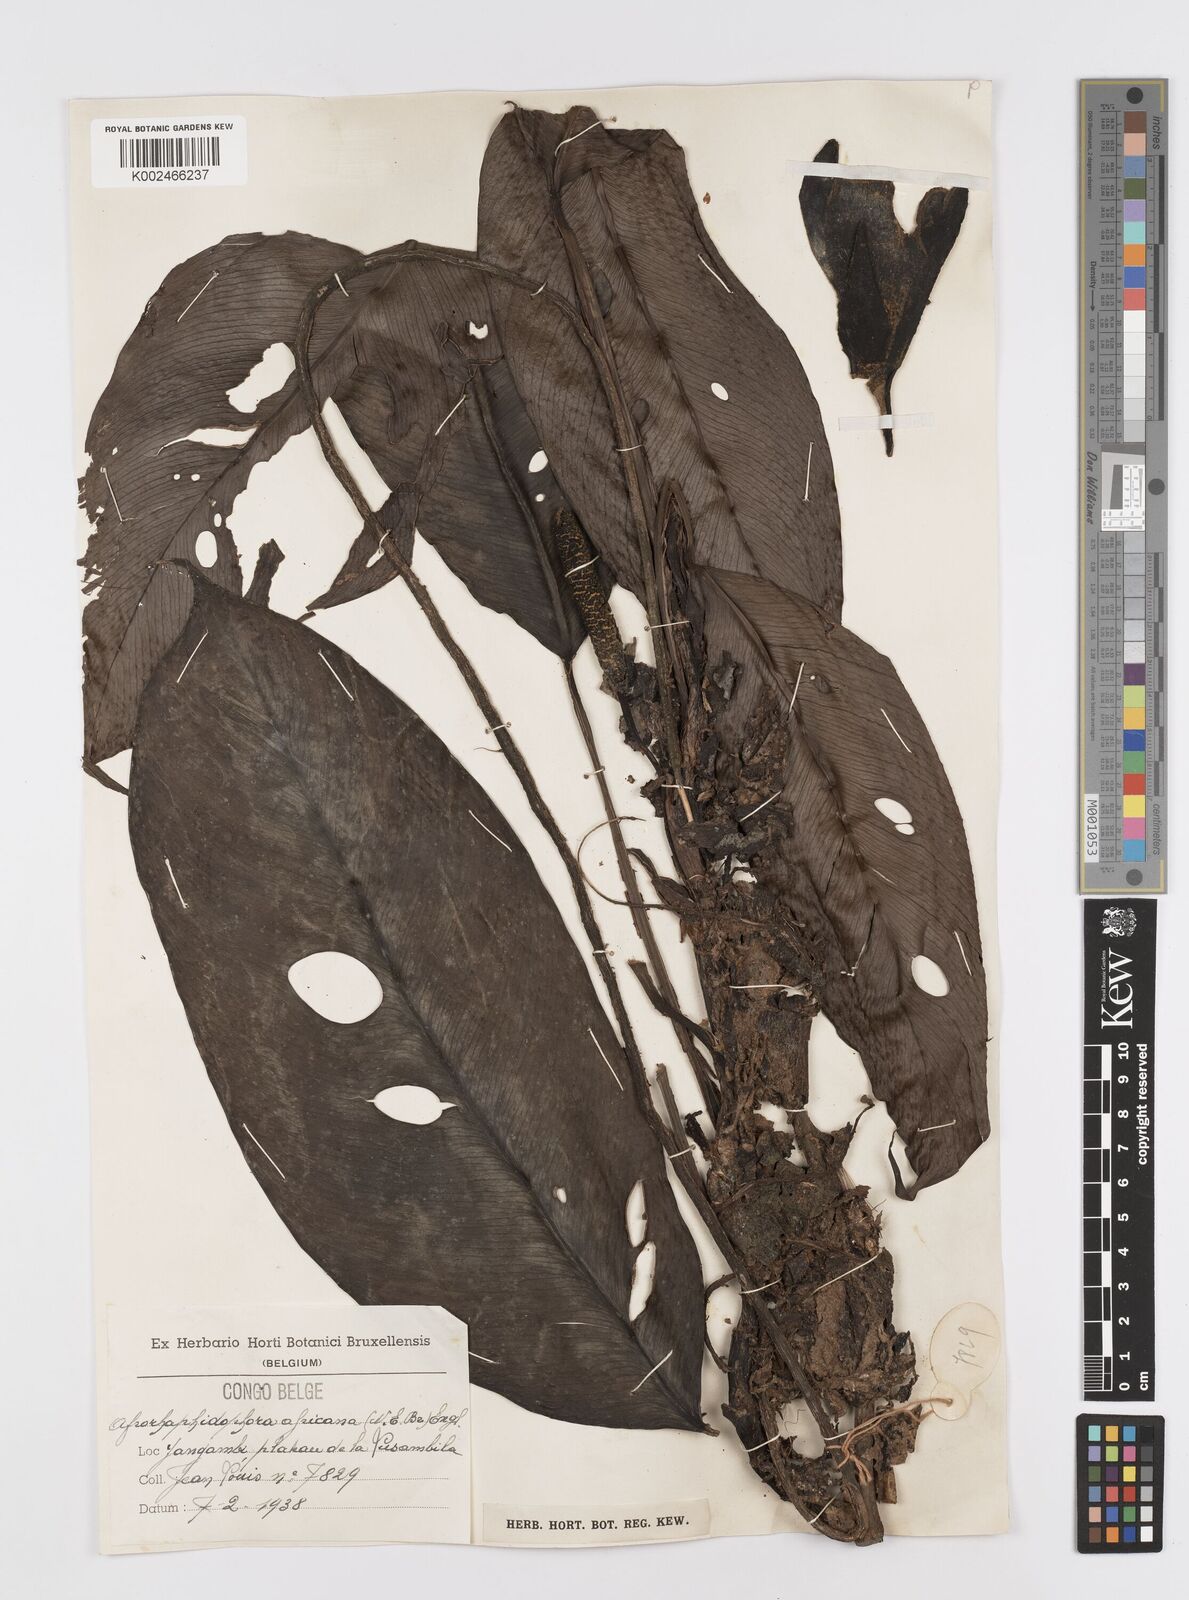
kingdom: Plantae
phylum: Tracheophyta
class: Liliopsida
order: Alismatales
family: Araceae
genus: Rhaphidophora
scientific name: Rhaphidophora africana
